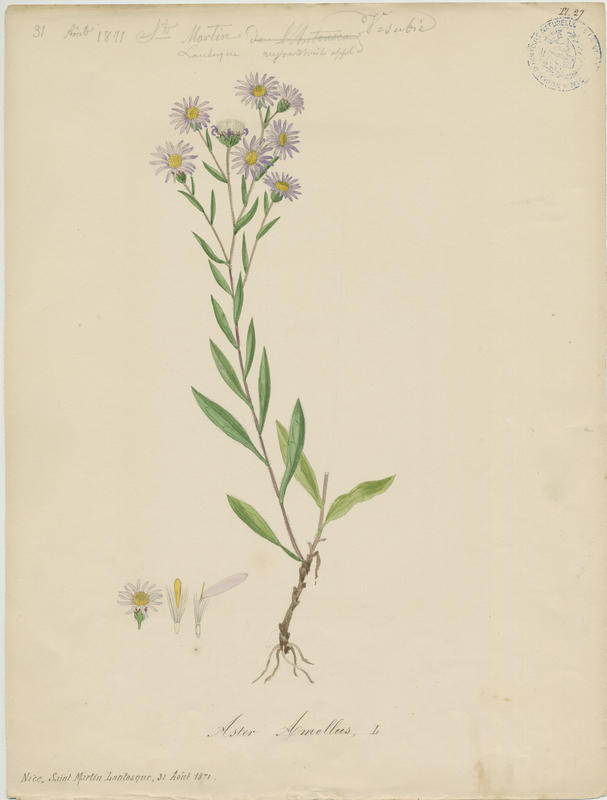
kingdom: Plantae
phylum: Tracheophyta
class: Magnoliopsida
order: Asterales
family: Asteraceae
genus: Aster
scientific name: Aster amellus
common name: European michaelmas daisy
